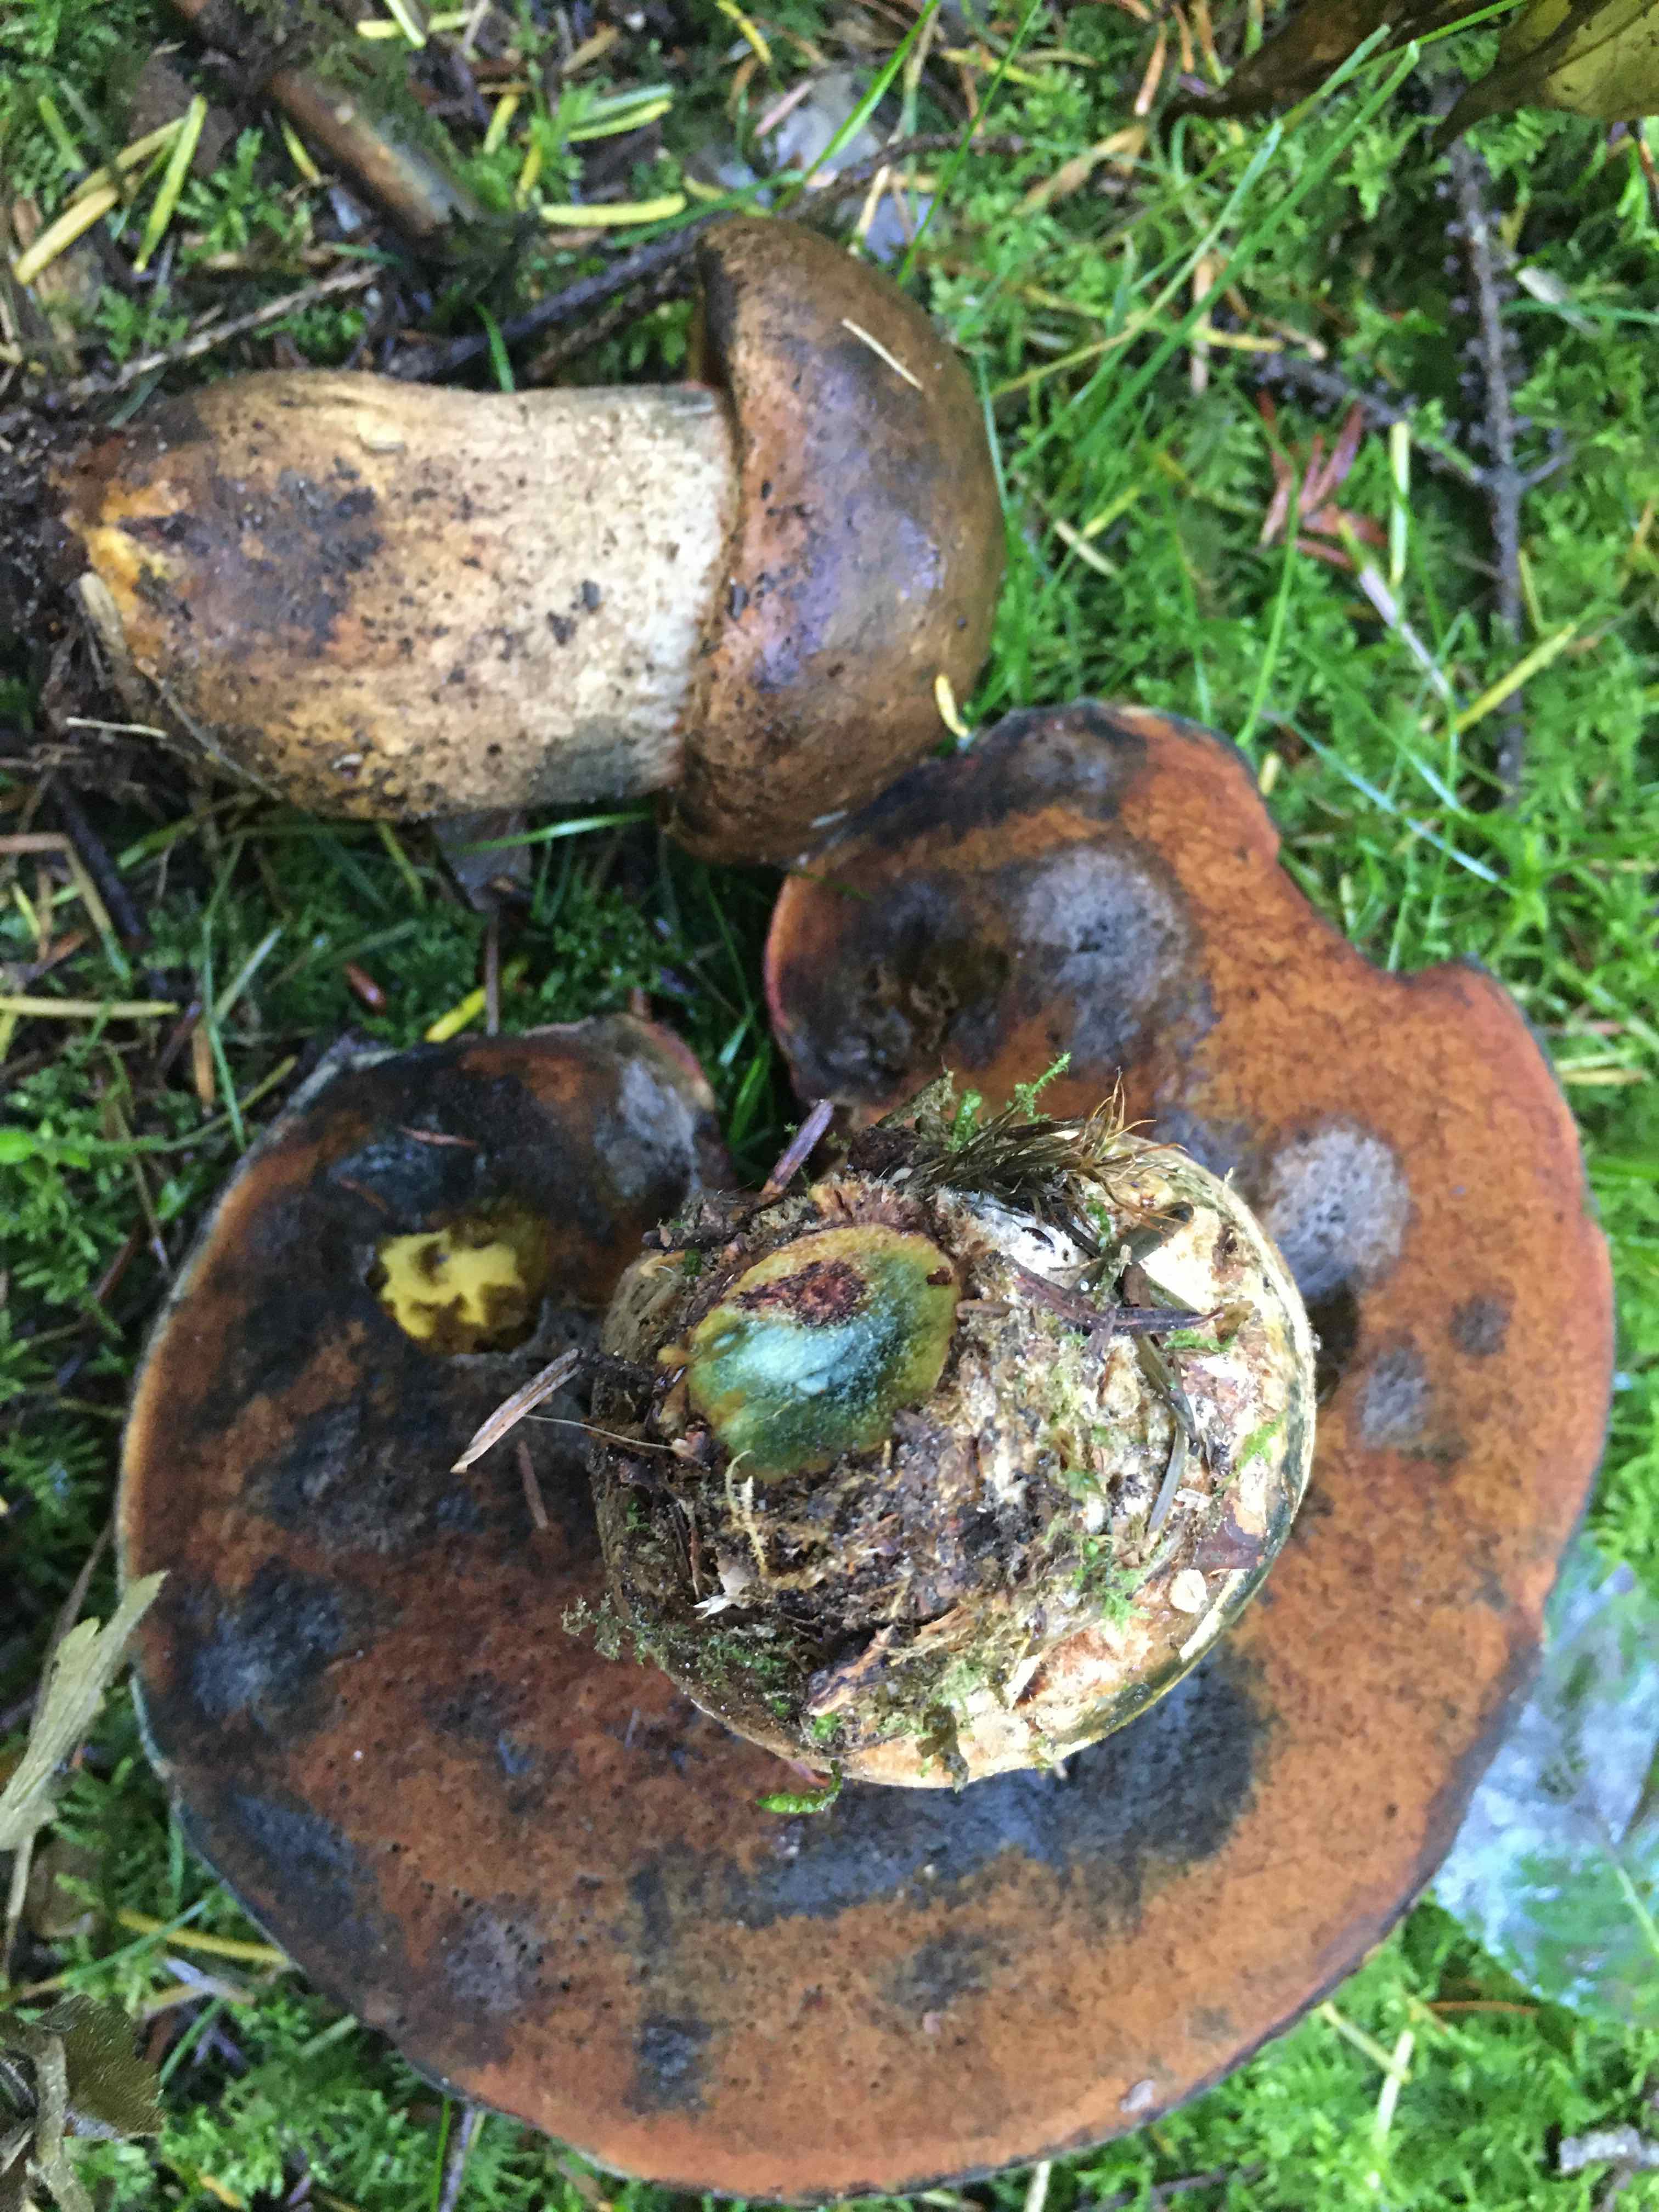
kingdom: Fungi
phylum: Basidiomycota
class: Agaricomycetes
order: Boletales
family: Boletaceae
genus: Neoboletus
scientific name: Neoboletus erythropus
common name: punktstokket indigorørhat
